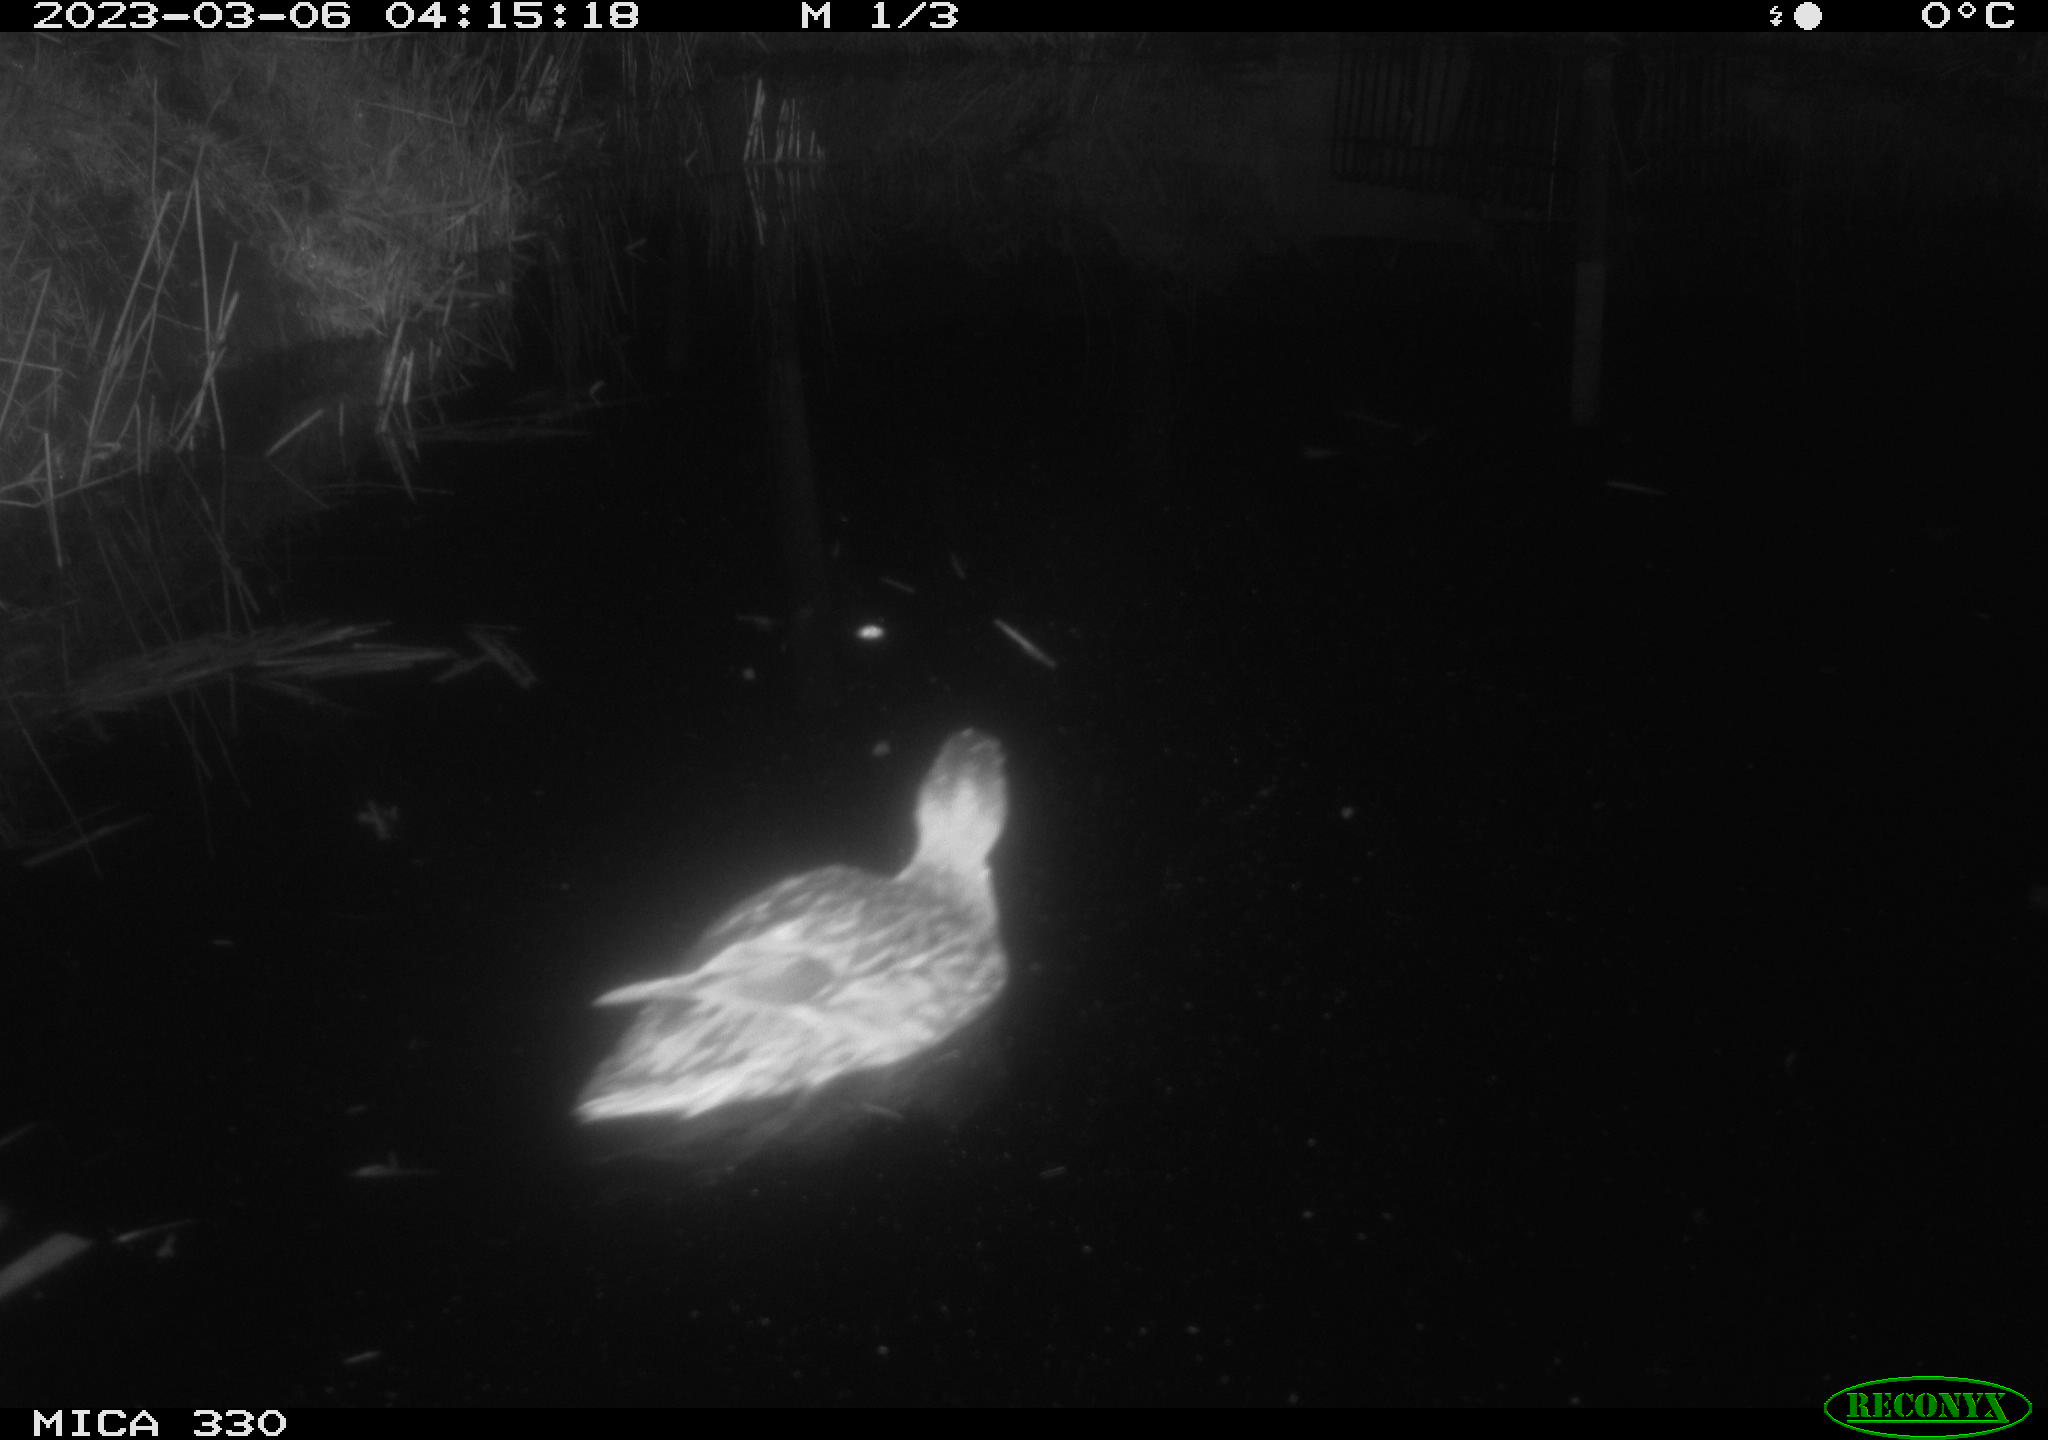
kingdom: Animalia
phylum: Chordata
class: Aves
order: Anseriformes
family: Anatidae
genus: Anas
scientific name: Anas
